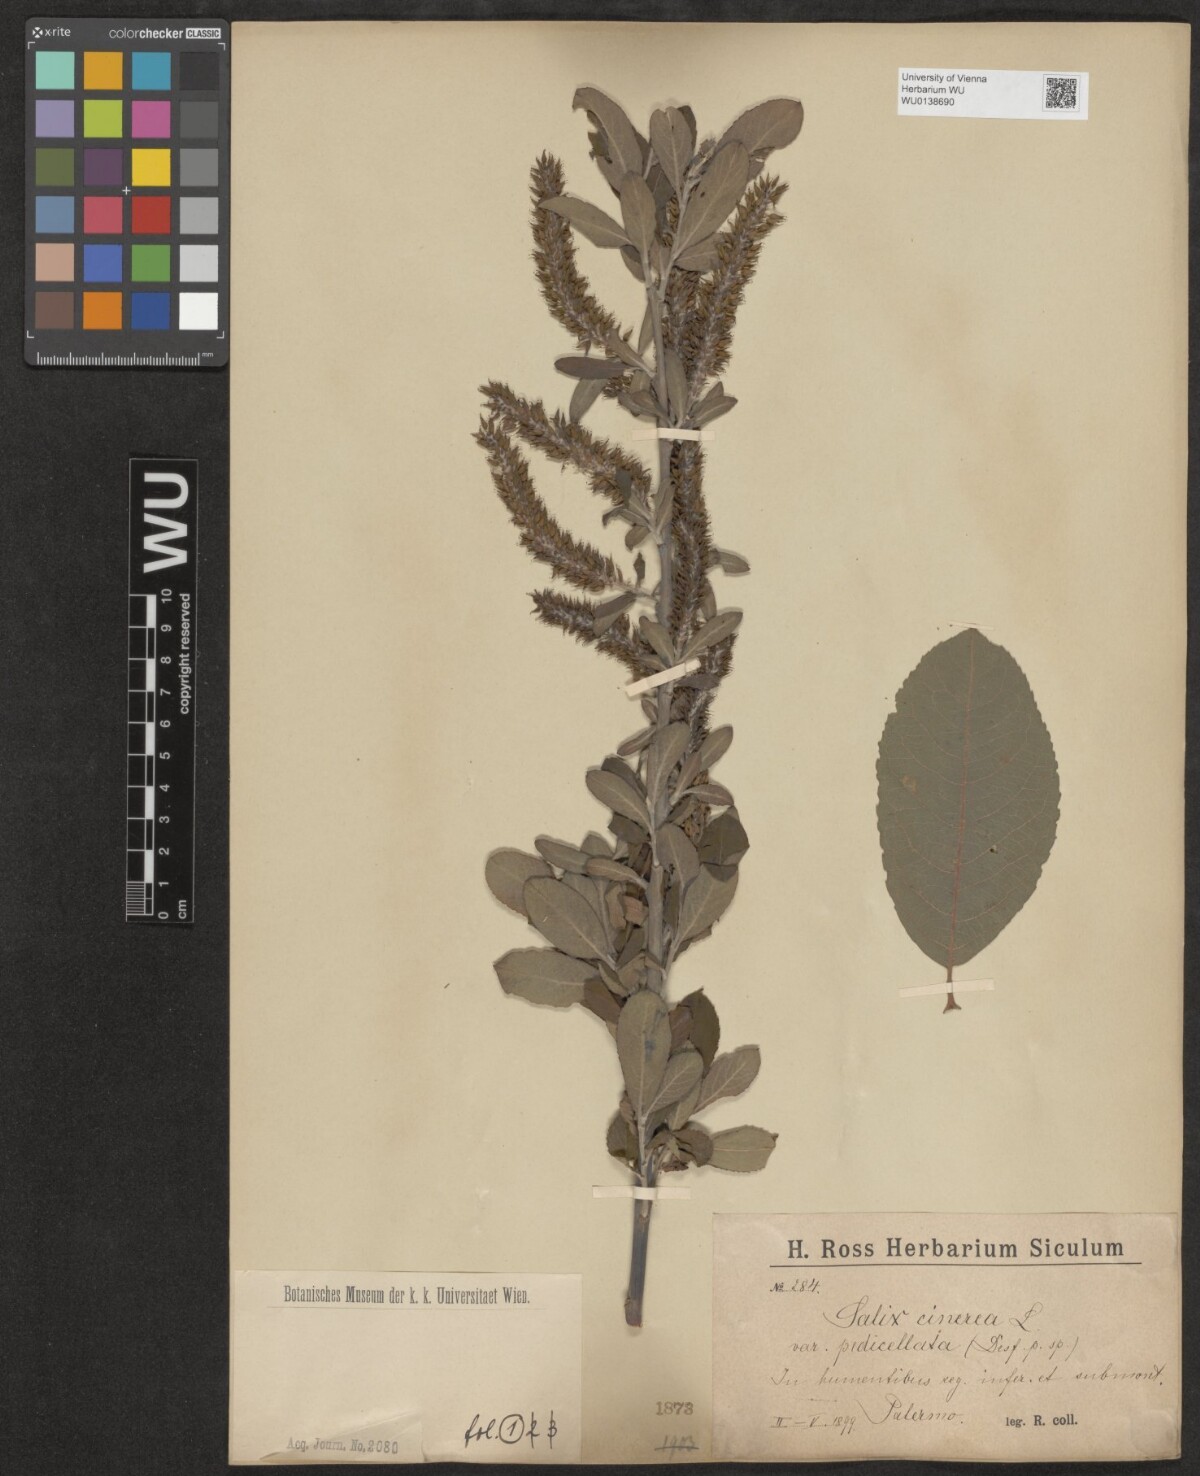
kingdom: Plantae
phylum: Tracheophyta
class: Magnoliopsida
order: Malpighiales
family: Salicaceae
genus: Salix
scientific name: Salix pedicellata
